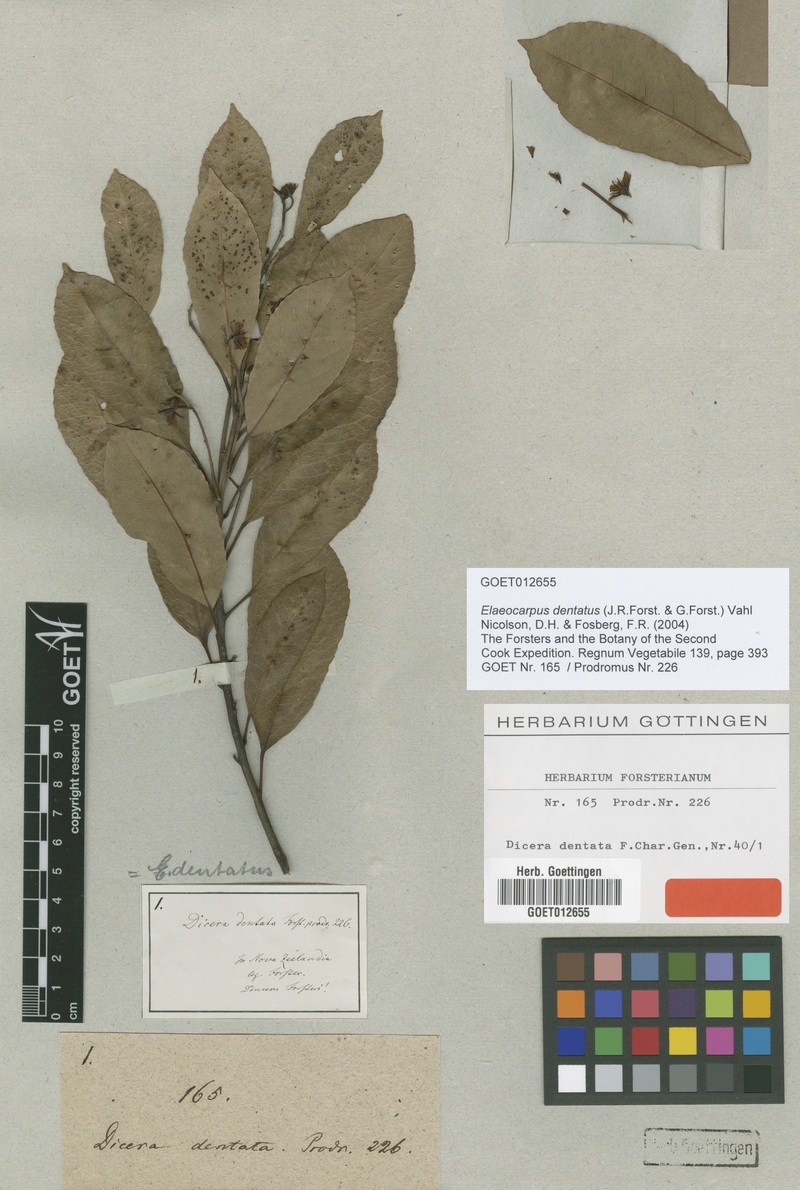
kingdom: Plantae
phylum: Tracheophyta
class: Magnoliopsida
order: Oxalidales
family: Elaeocarpaceae
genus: Elaeocarpus
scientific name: Elaeocarpus dentatus
